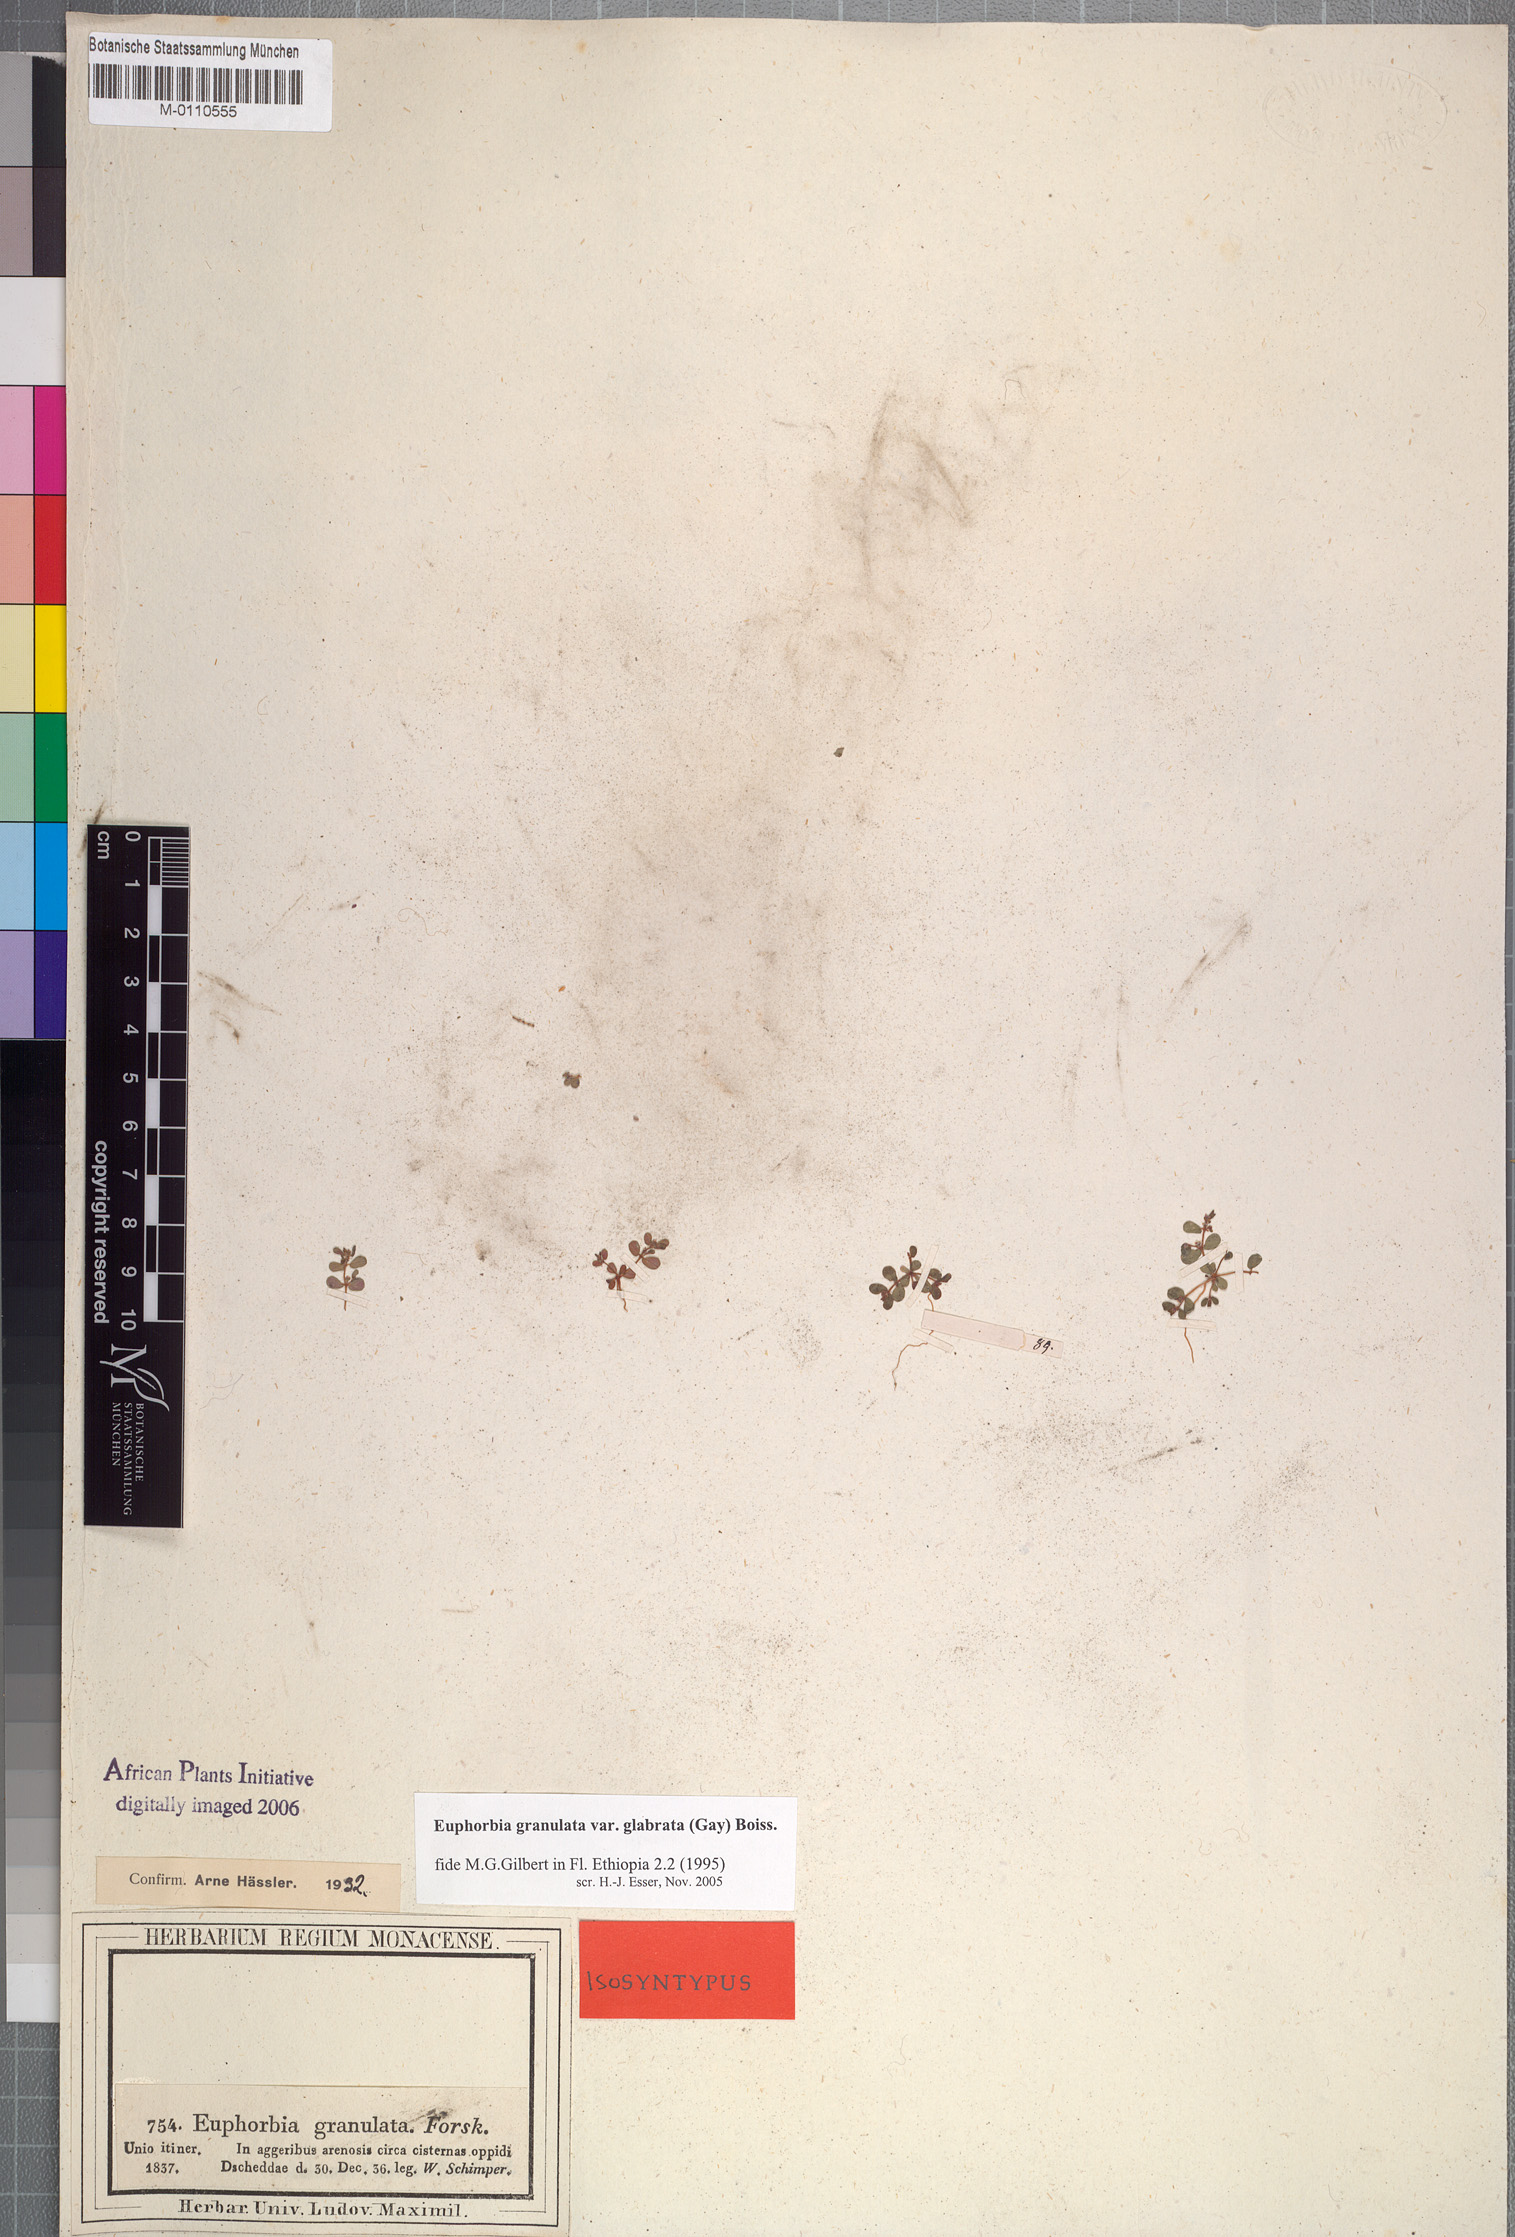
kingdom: Plantae
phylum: Tracheophyta
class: Magnoliopsida
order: Malpighiales
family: Euphorbiaceae
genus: Euphorbia
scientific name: Euphorbia granulata
